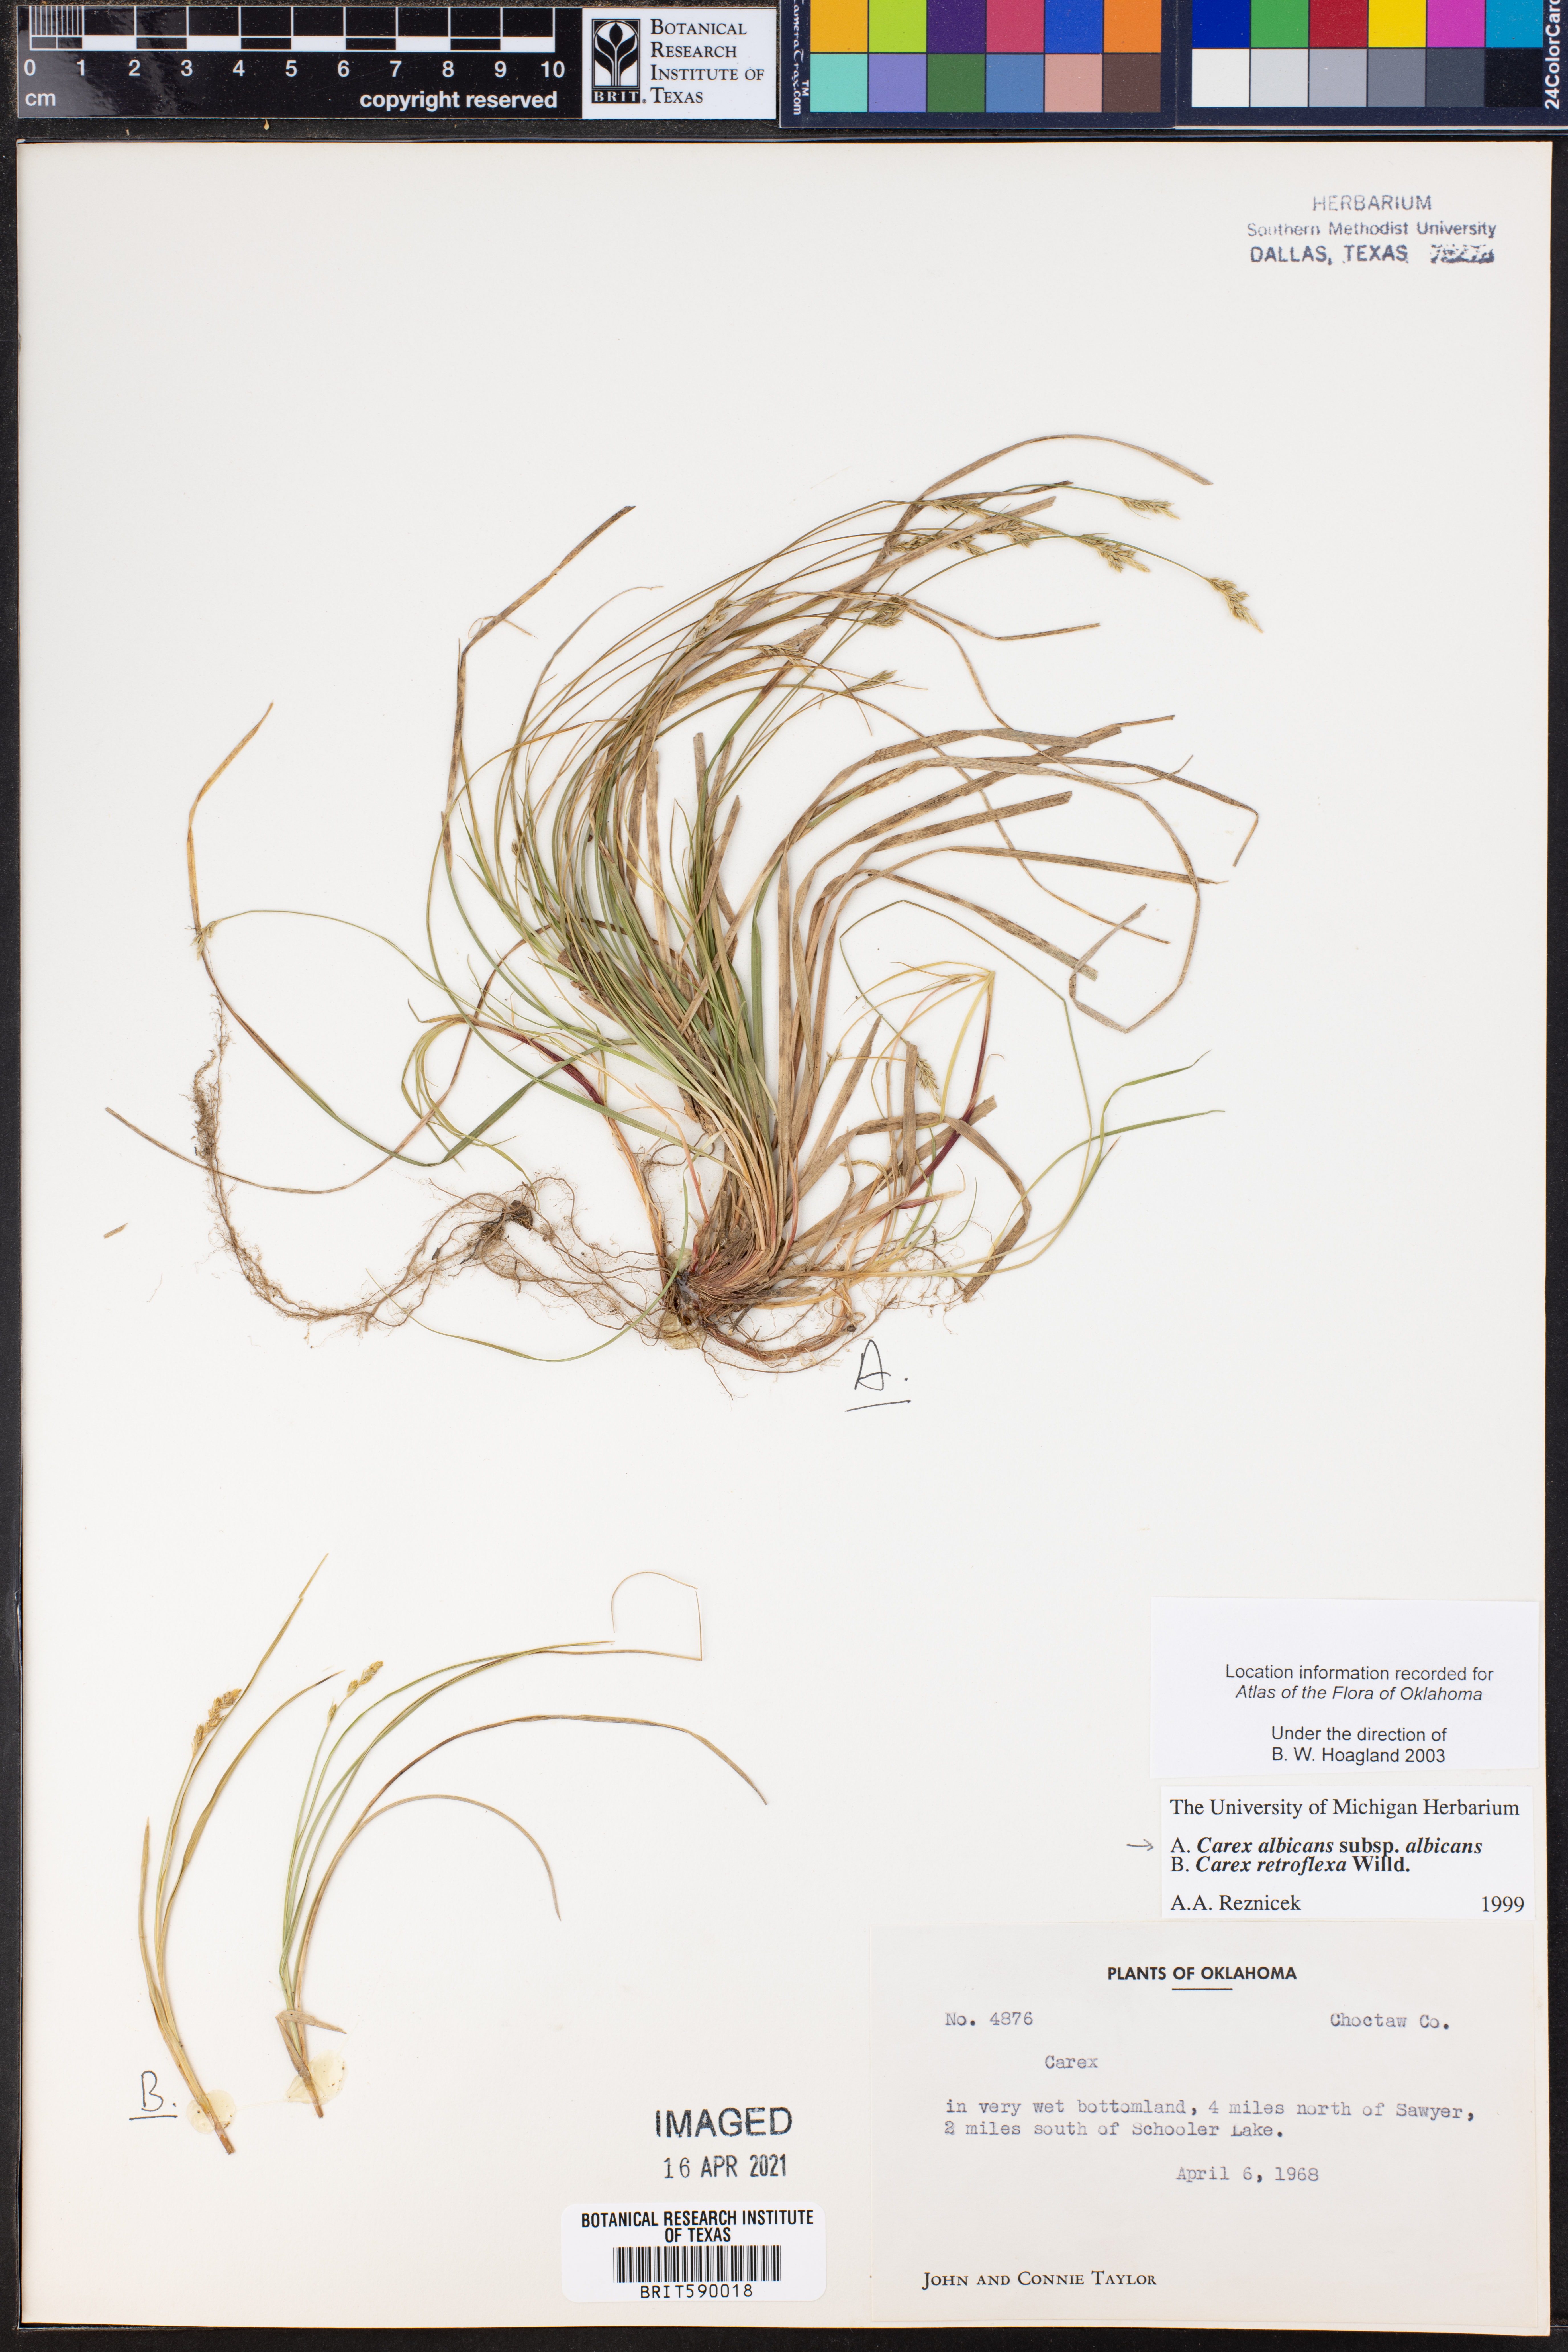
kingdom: Plantae
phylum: Tracheophyta
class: Liliopsida
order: Poales
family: Cyperaceae
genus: Carex
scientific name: Carex albicans
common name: Bellow-beaked sedge
